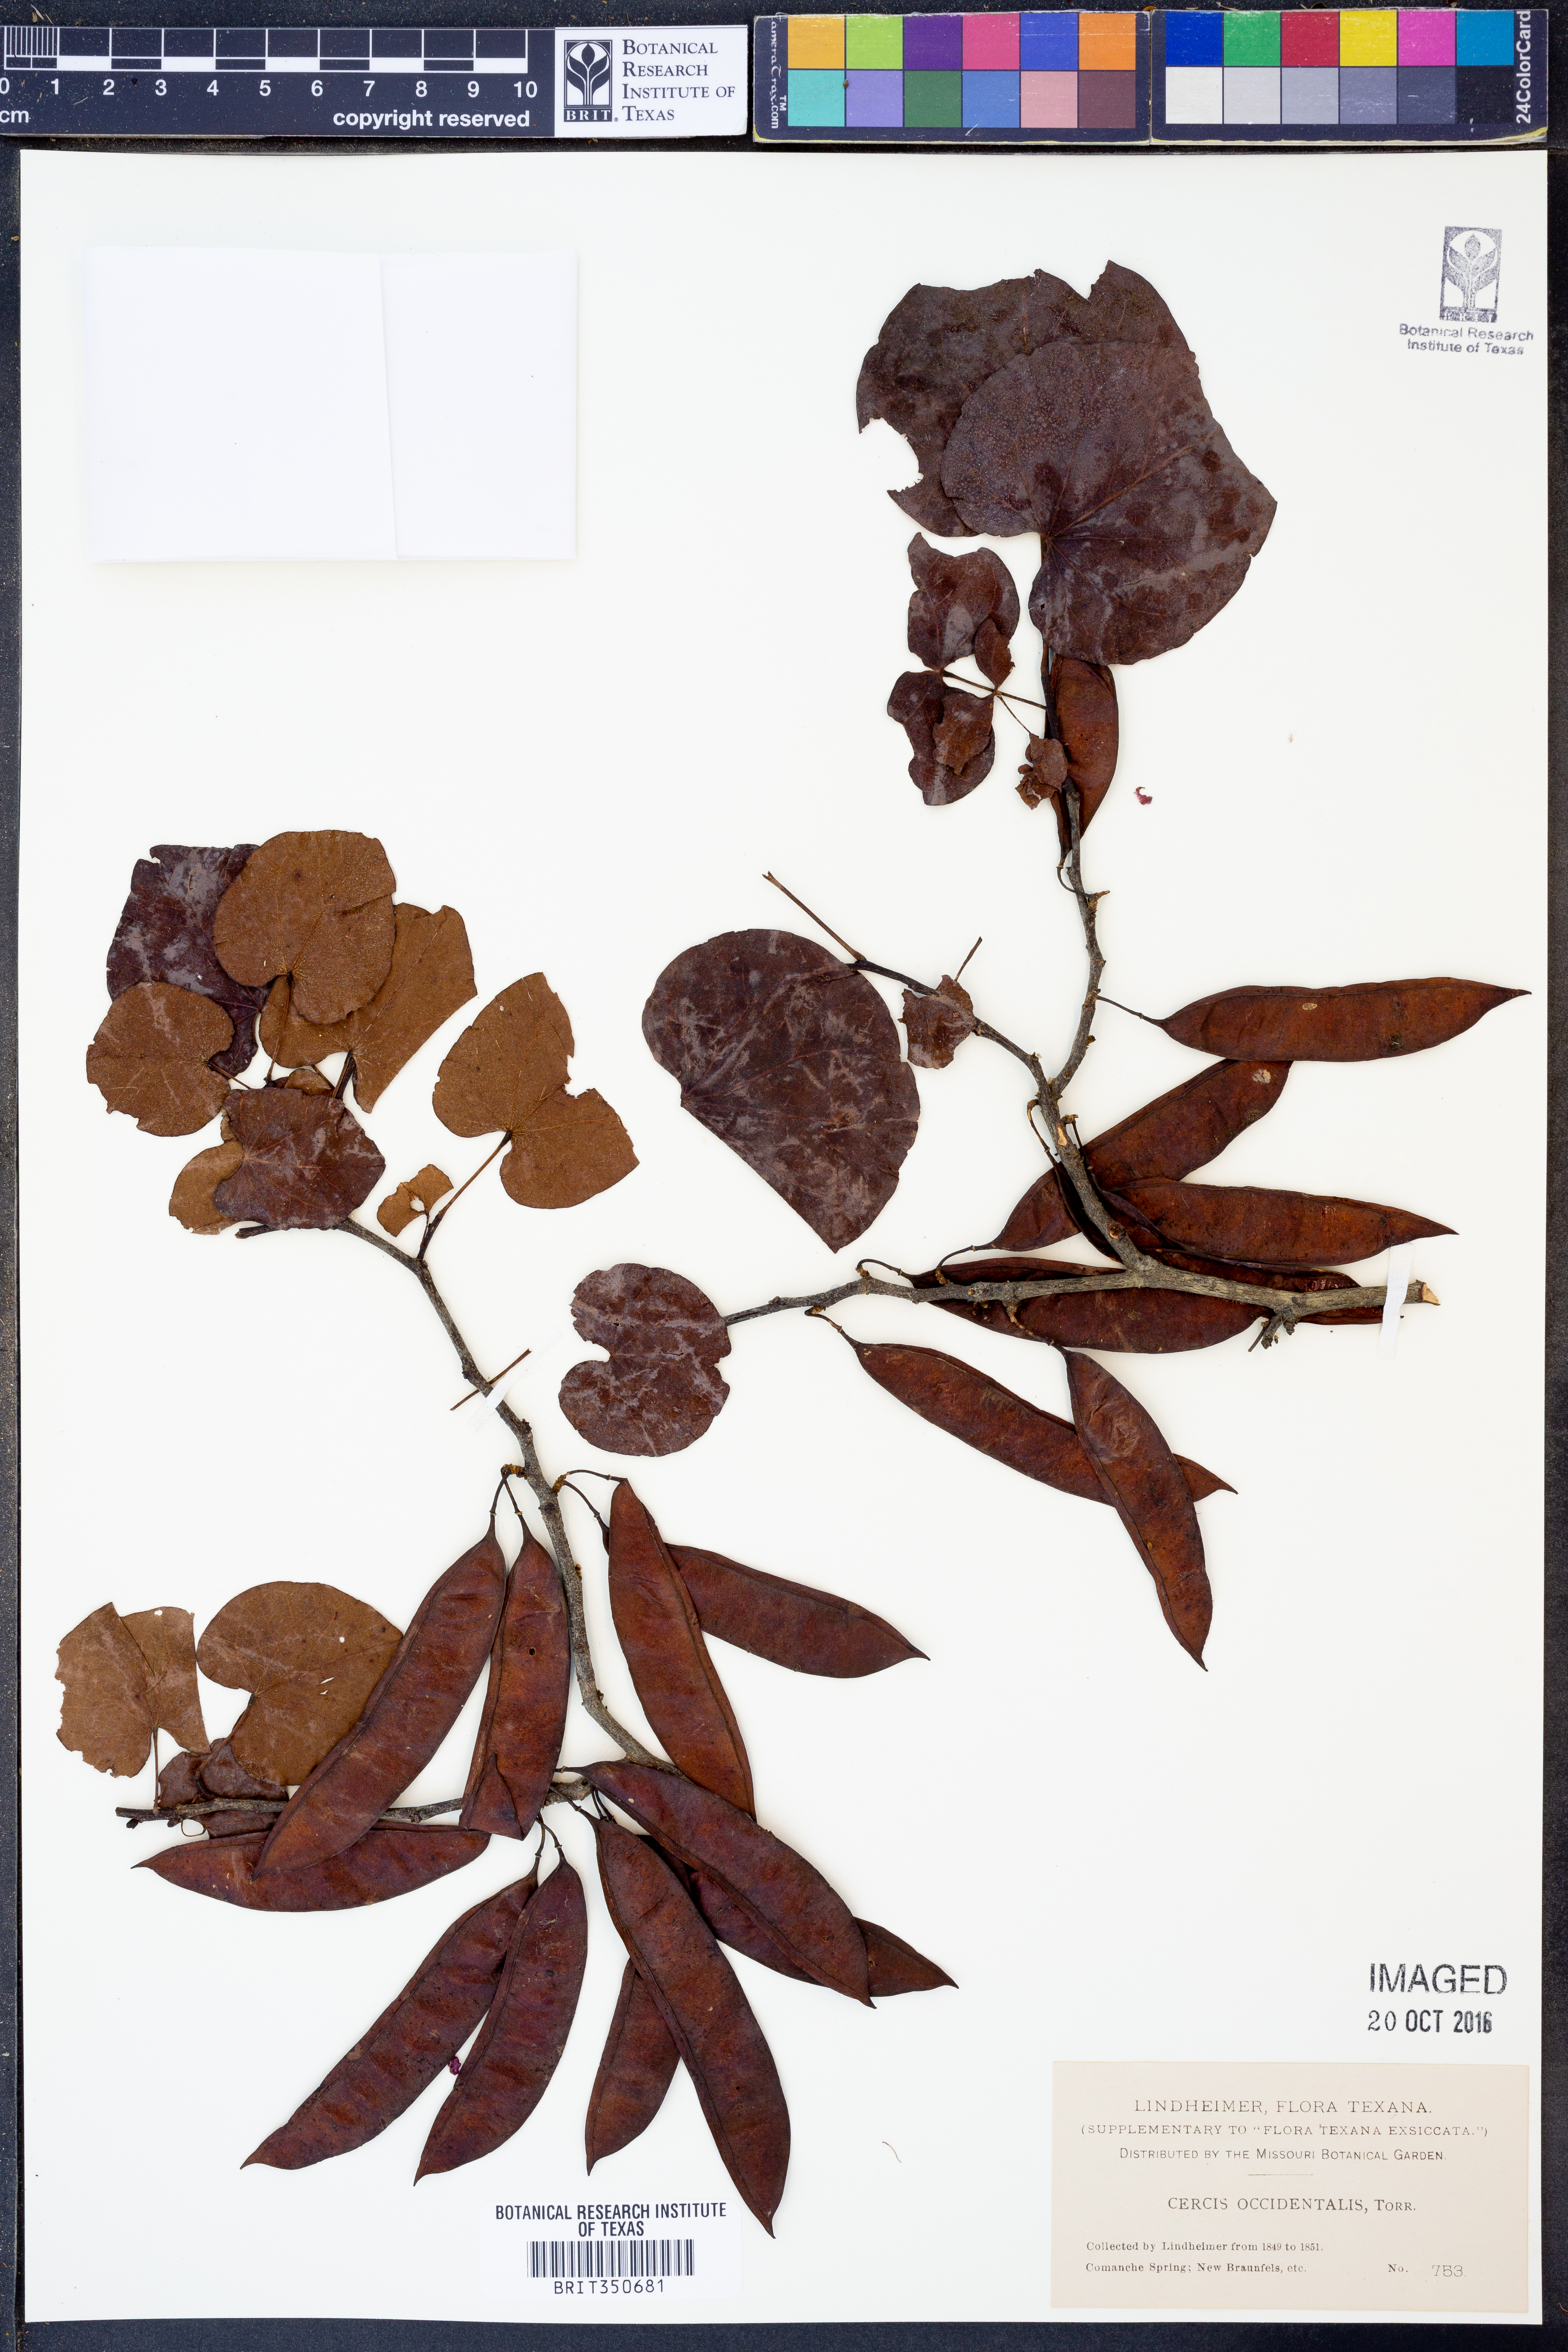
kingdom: Plantae
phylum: Tracheophyta
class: Magnoliopsida
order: Fabales
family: Fabaceae
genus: Cercis
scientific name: Cercis occidentalis
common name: California redbud
